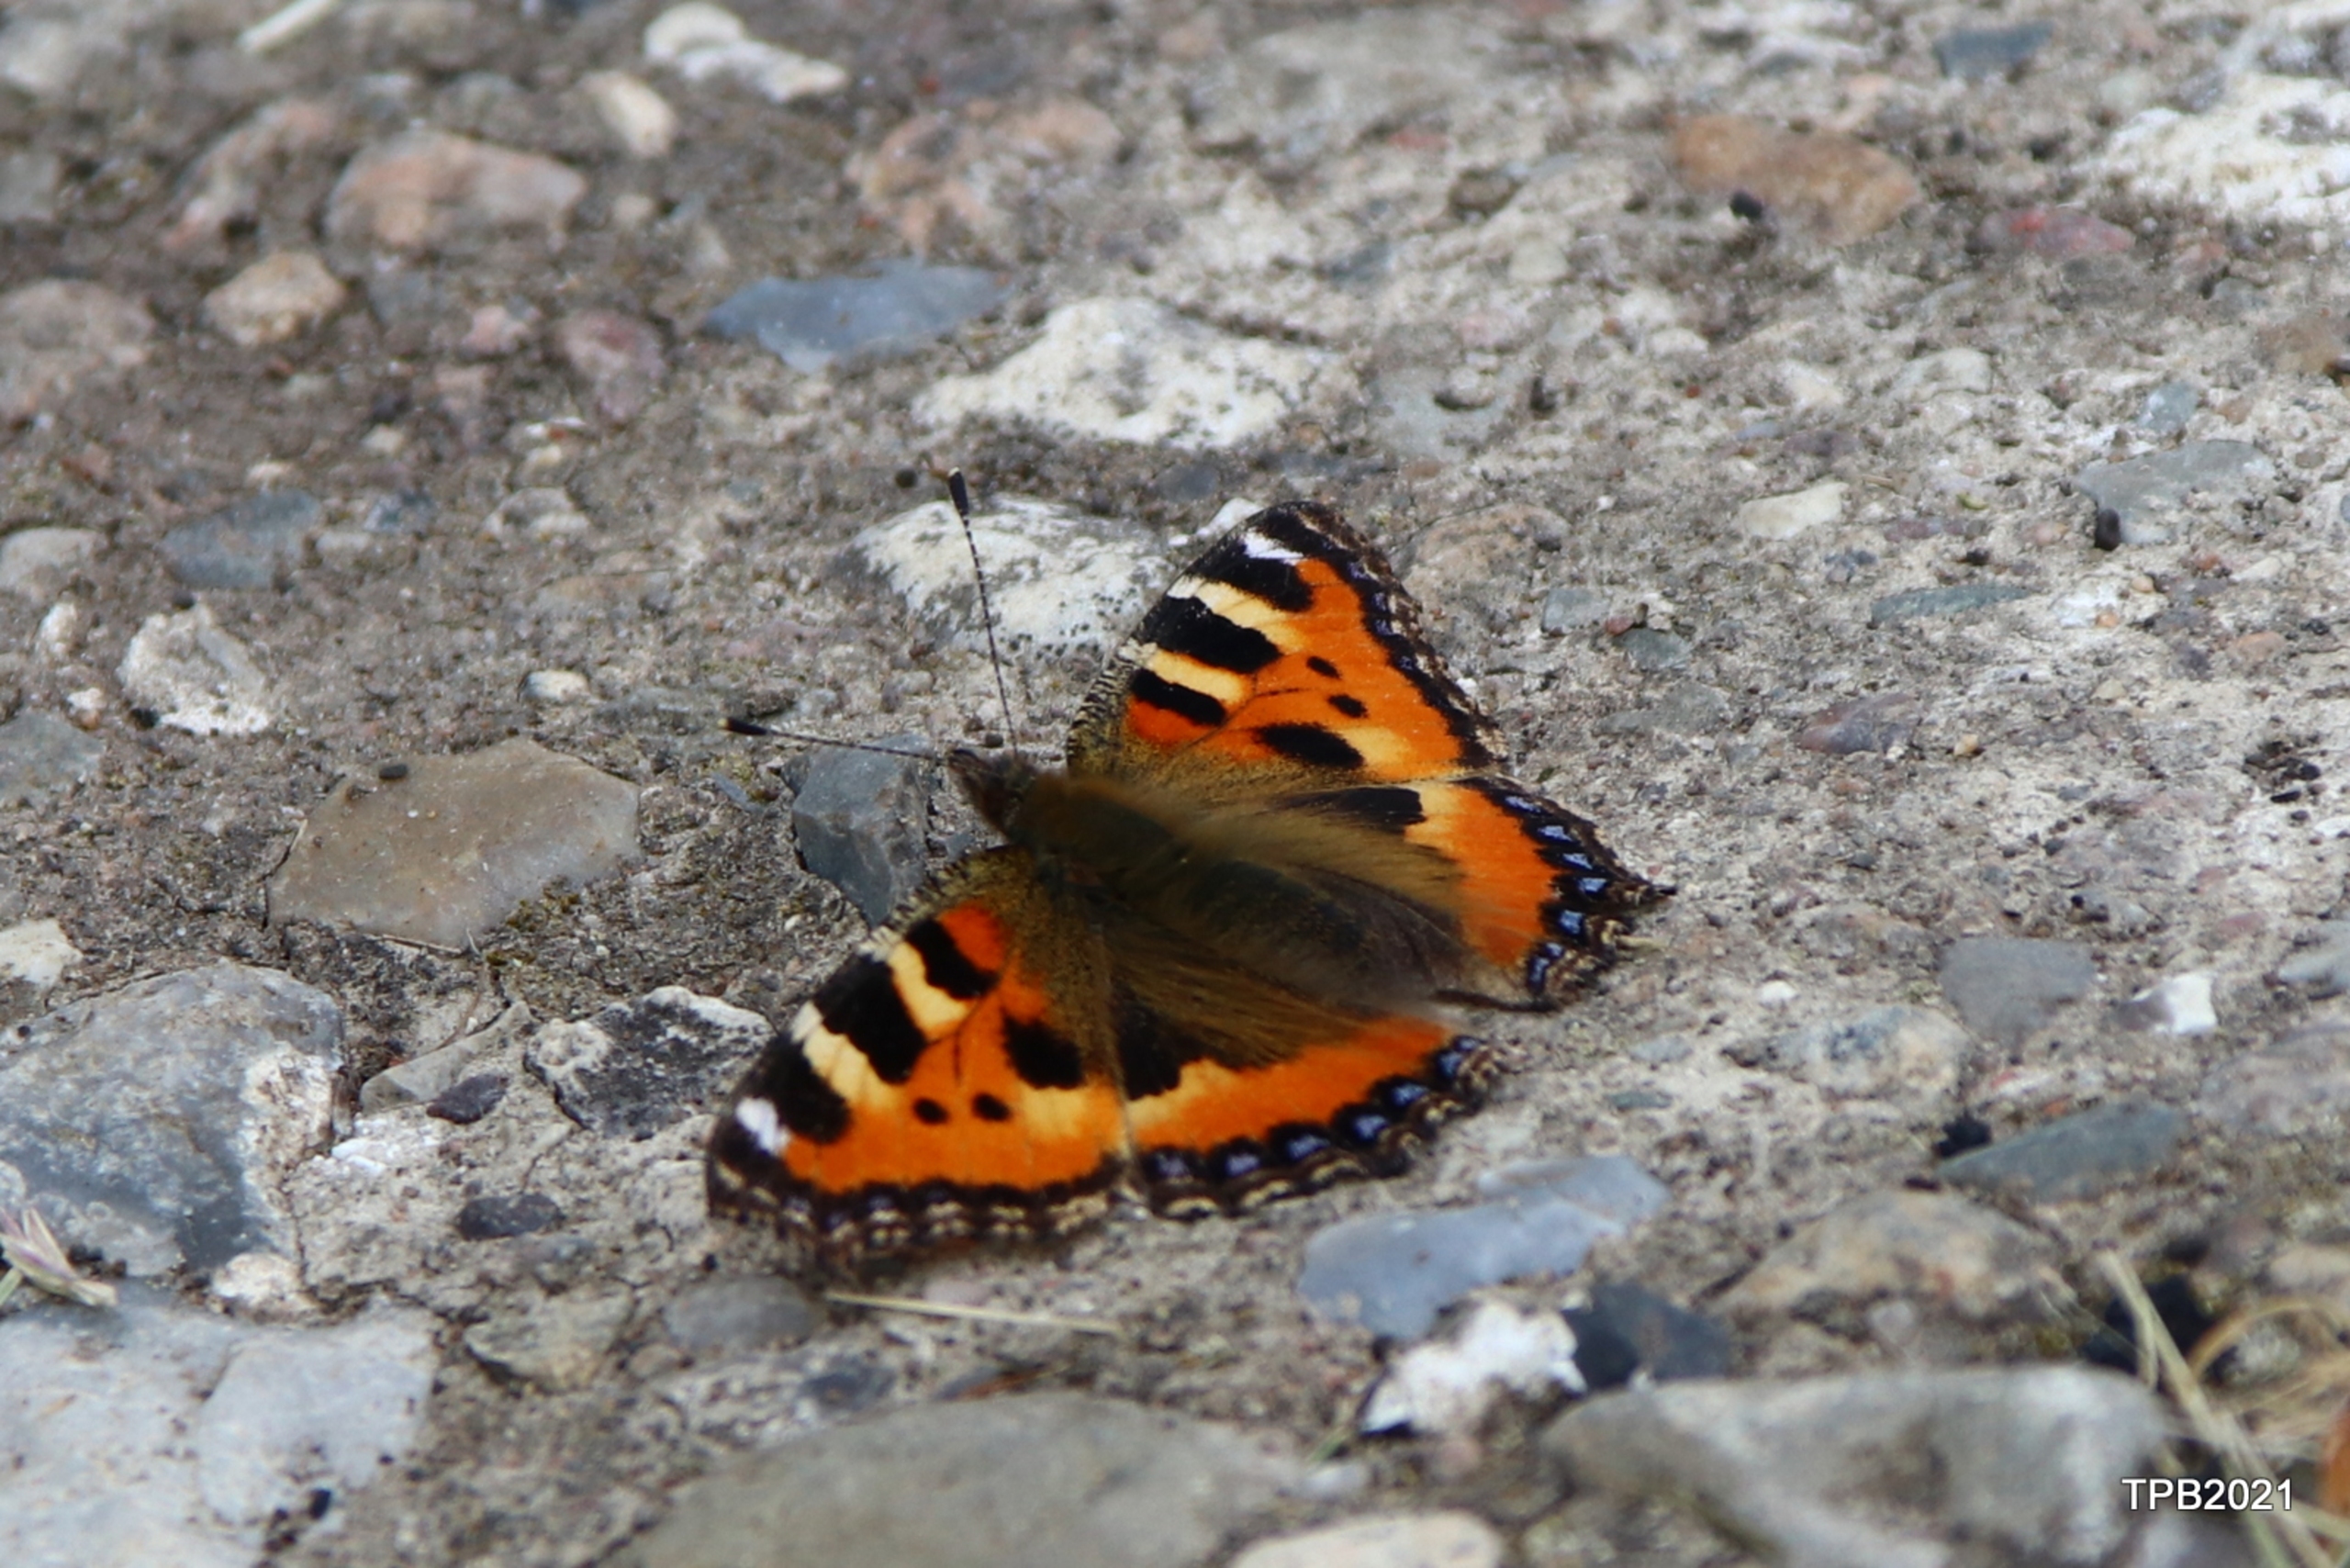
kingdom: Animalia
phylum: Arthropoda
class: Insecta
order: Lepidoptera
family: Nymphalidae
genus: Aglais
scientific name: Aglais urticae
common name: Nældens takvinge
